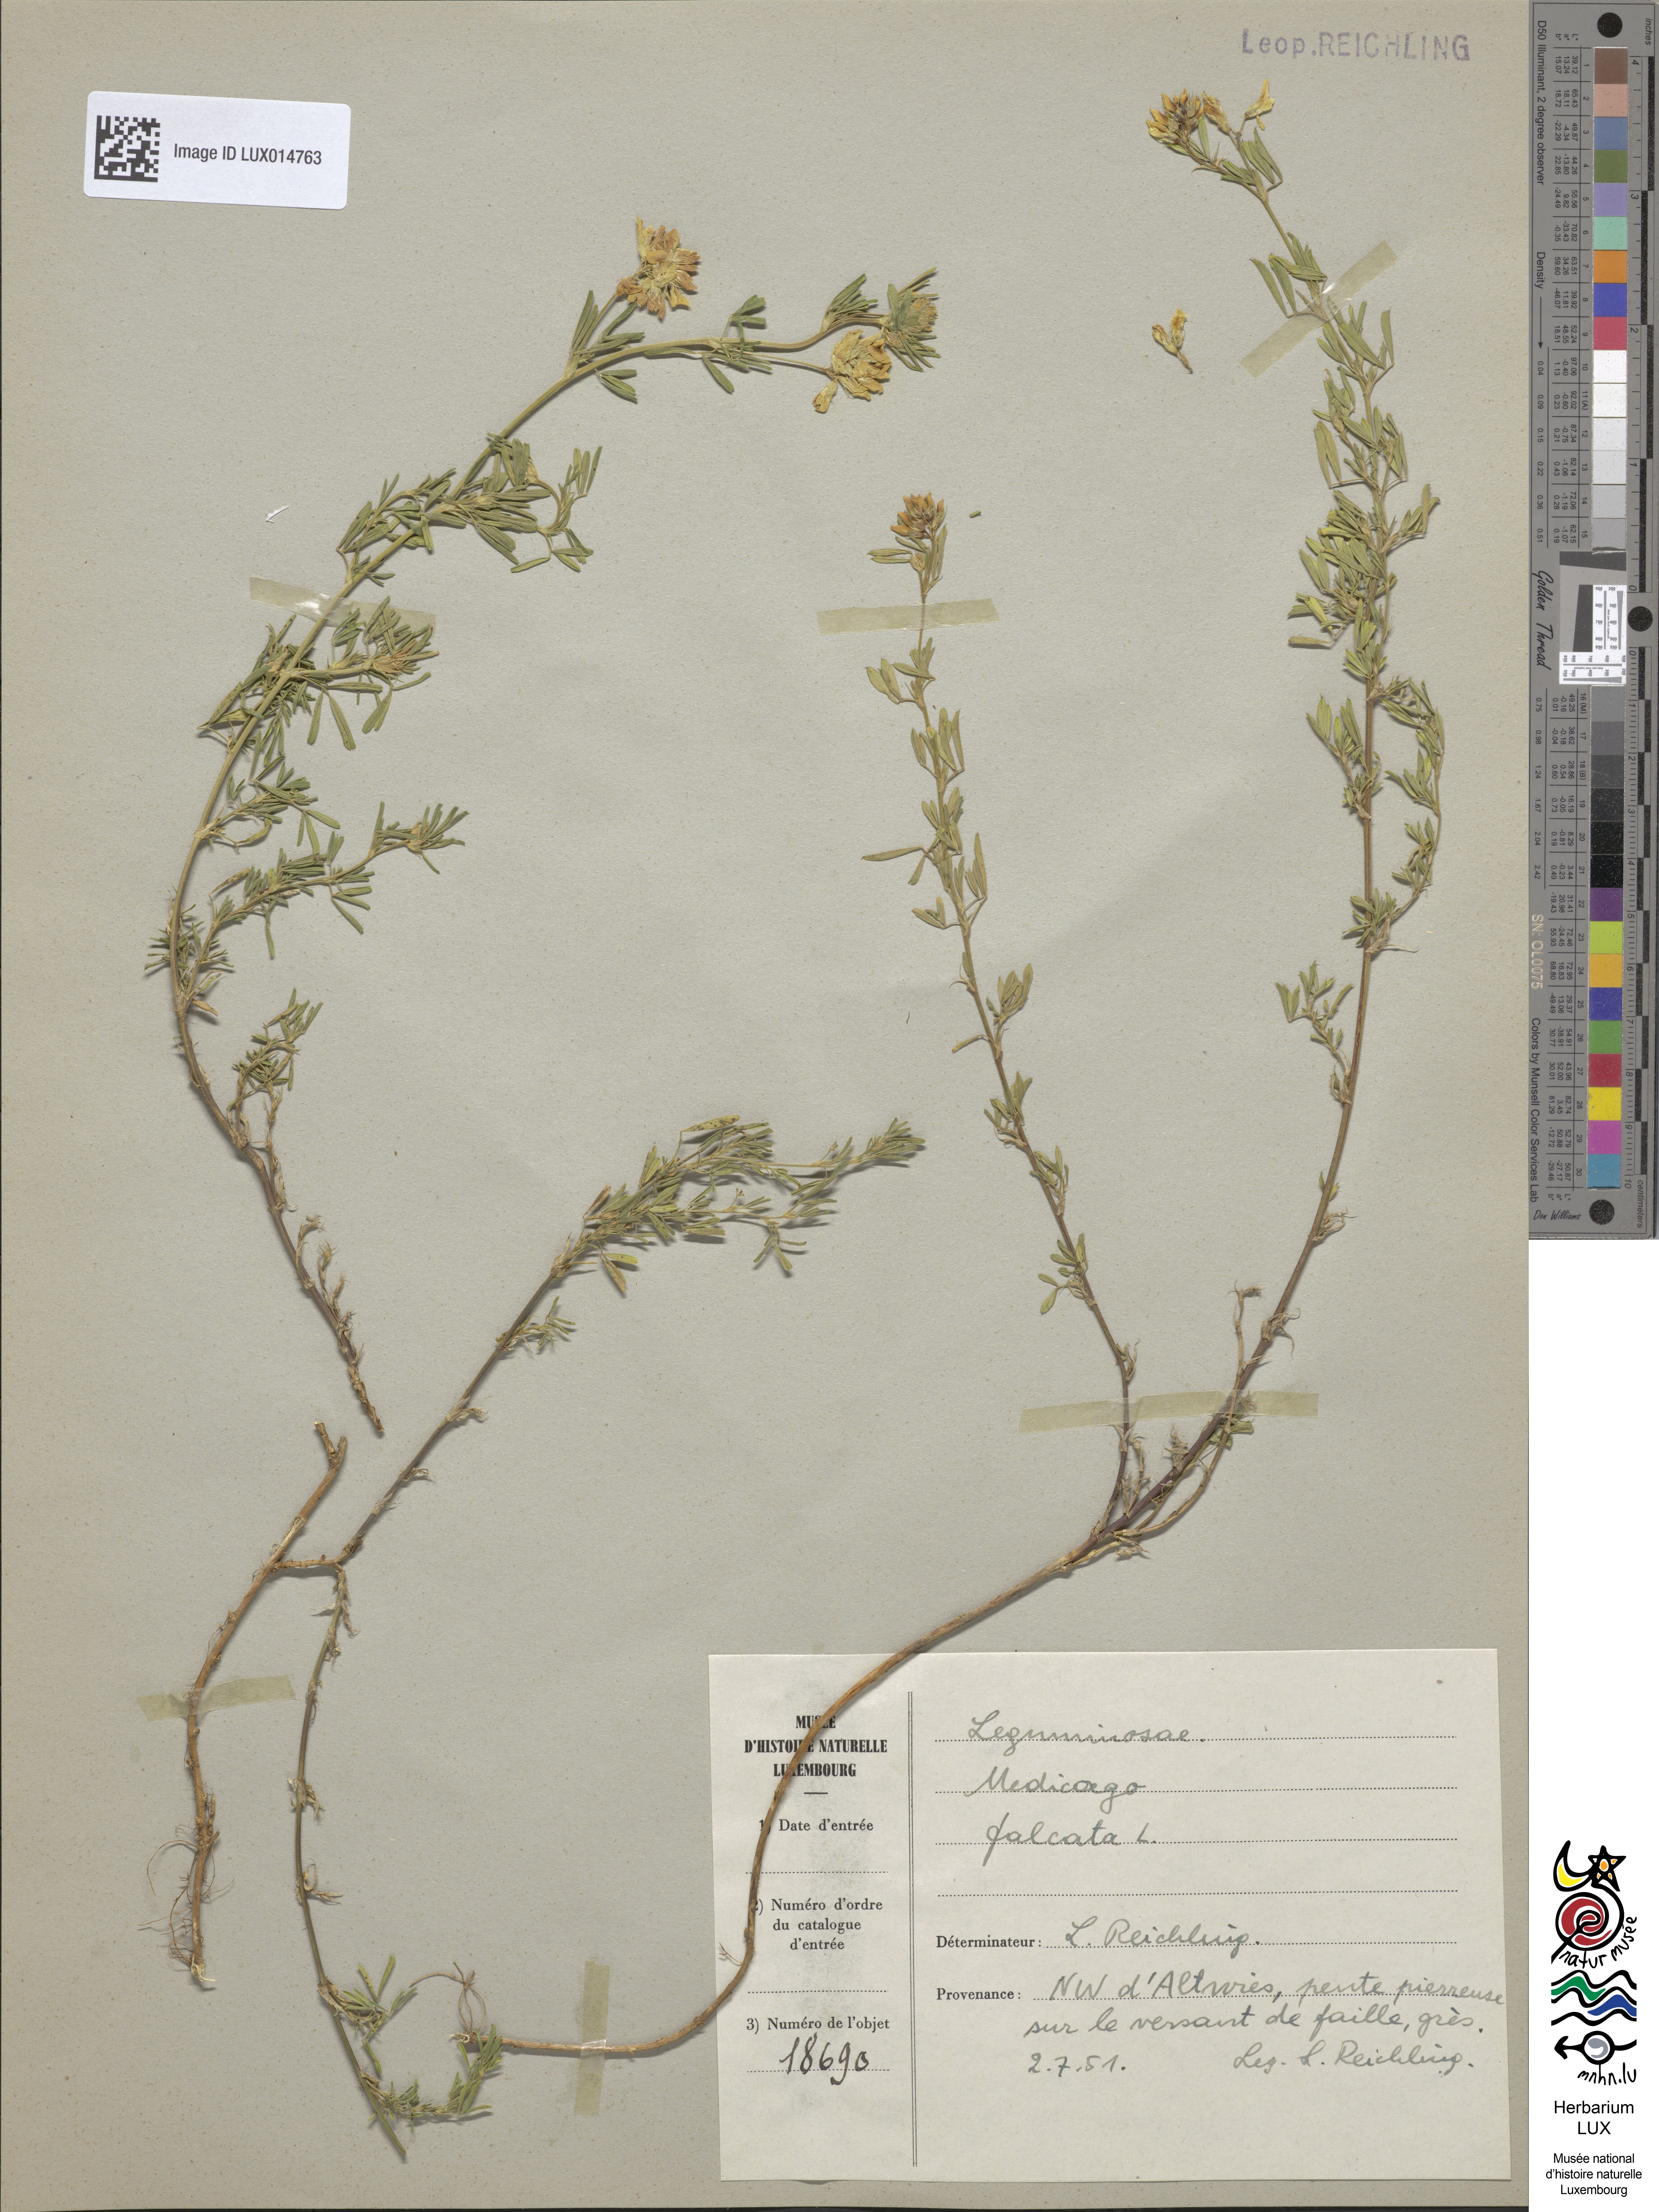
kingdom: Plantae
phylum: Tracheophyta
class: Magnoliopsida
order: Fabales
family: Fabaceae
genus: Medicago
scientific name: Medicago falcata
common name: Sickle medick
